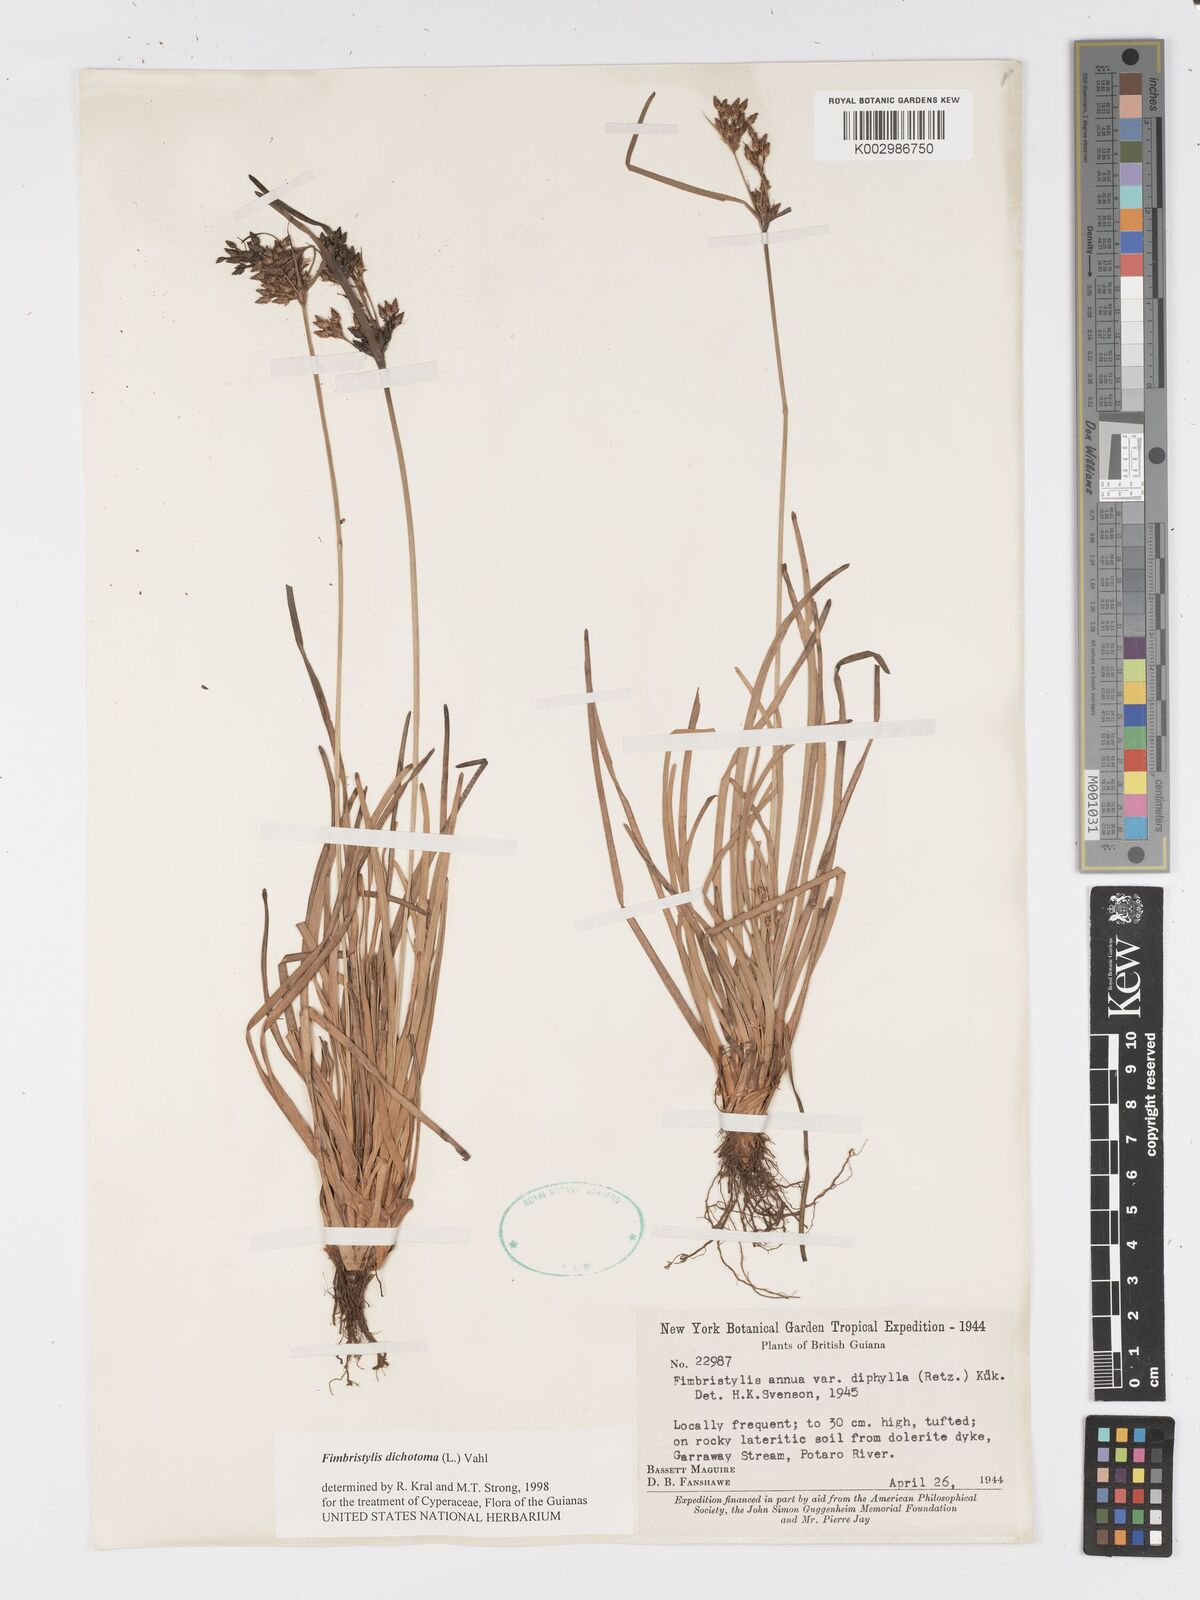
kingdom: Plantae
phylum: Tracheophyta
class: Liliopsida
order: Poales
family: Cyperaceae
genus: Fimbristylis
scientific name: Fimbristylis dichotoma
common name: Forked fimbry
